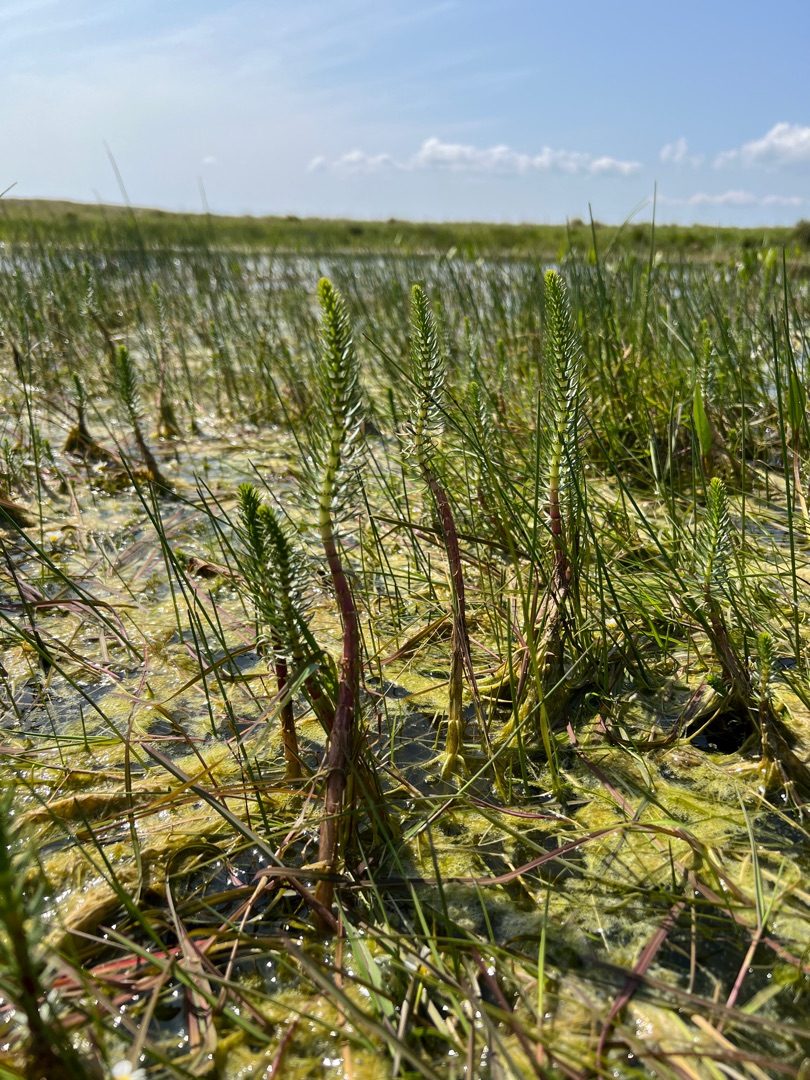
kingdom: Plantae
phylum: Tracheophyta
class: Magnoliopsida
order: Lamiales
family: Plantaginaceae
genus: Hippuris
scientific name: Hippuris vulgaris
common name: Vandspir
